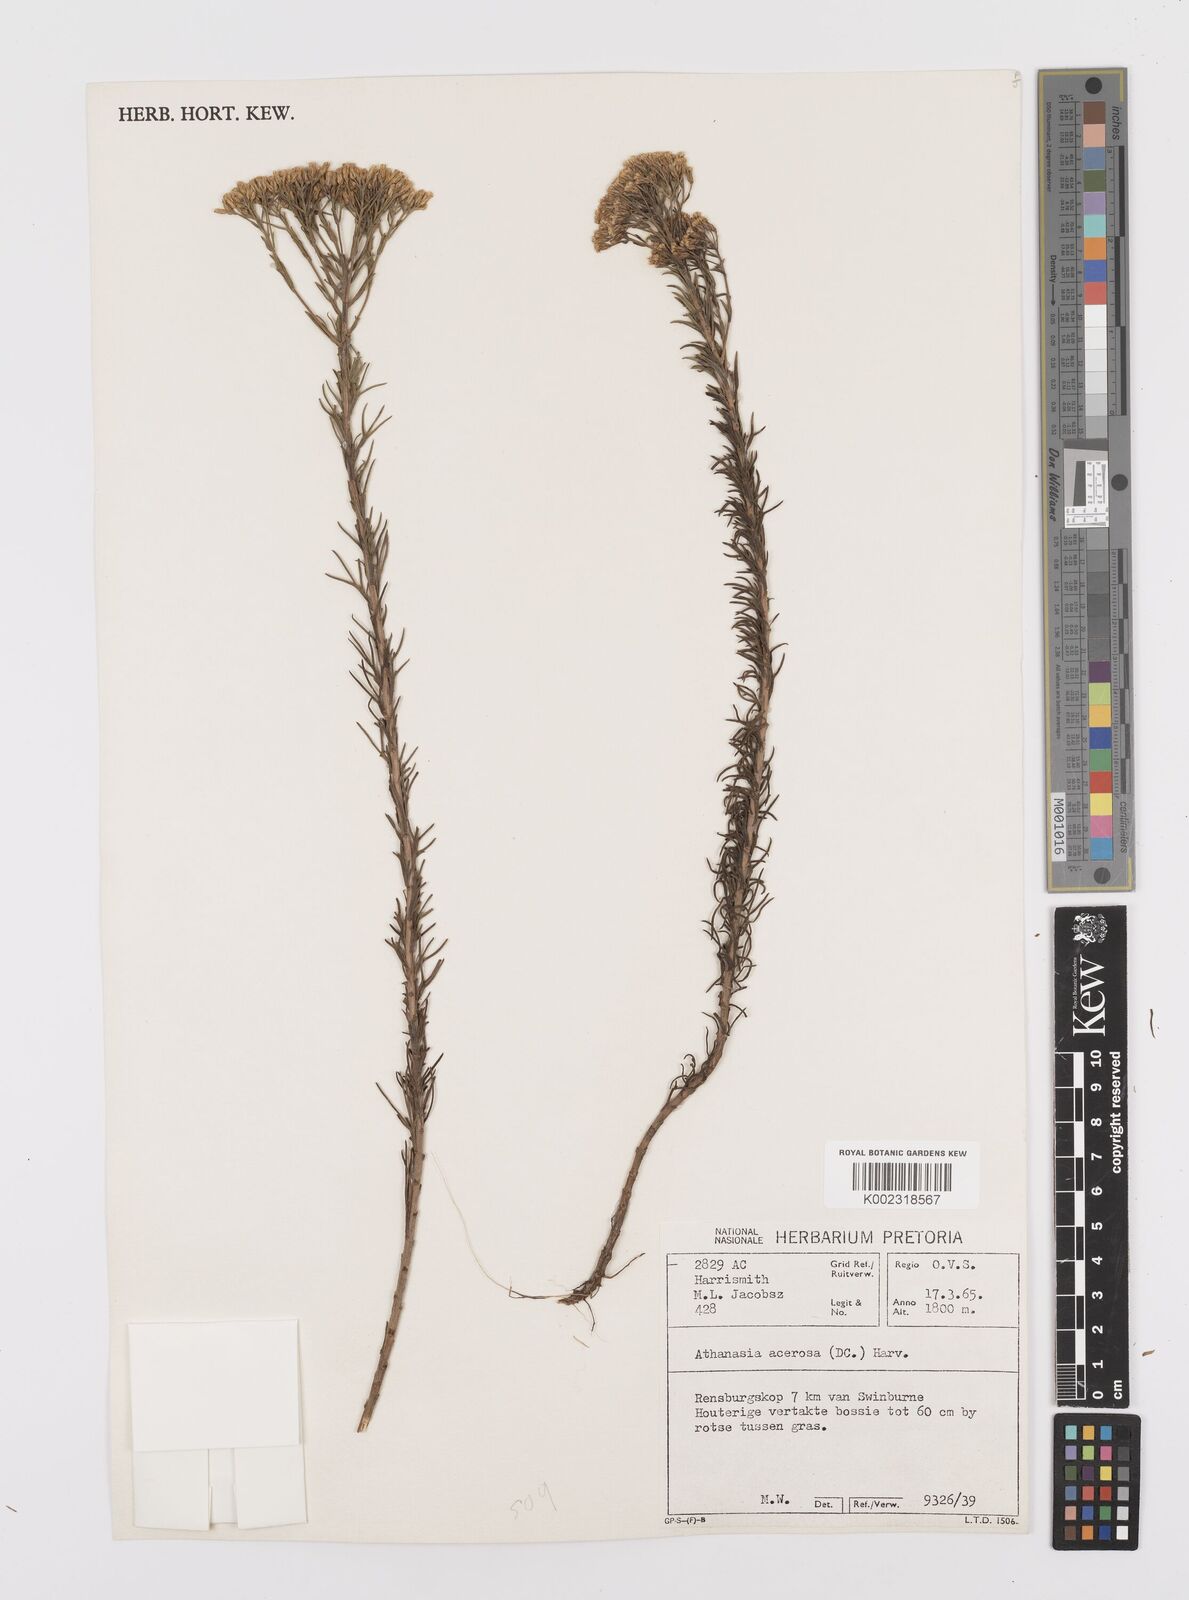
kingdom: Plantae
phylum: Tracheophyta
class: Magnoliopsida
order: Asterales
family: Asteraceae
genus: Phymaspermum
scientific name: Phymaspermum acerosum
